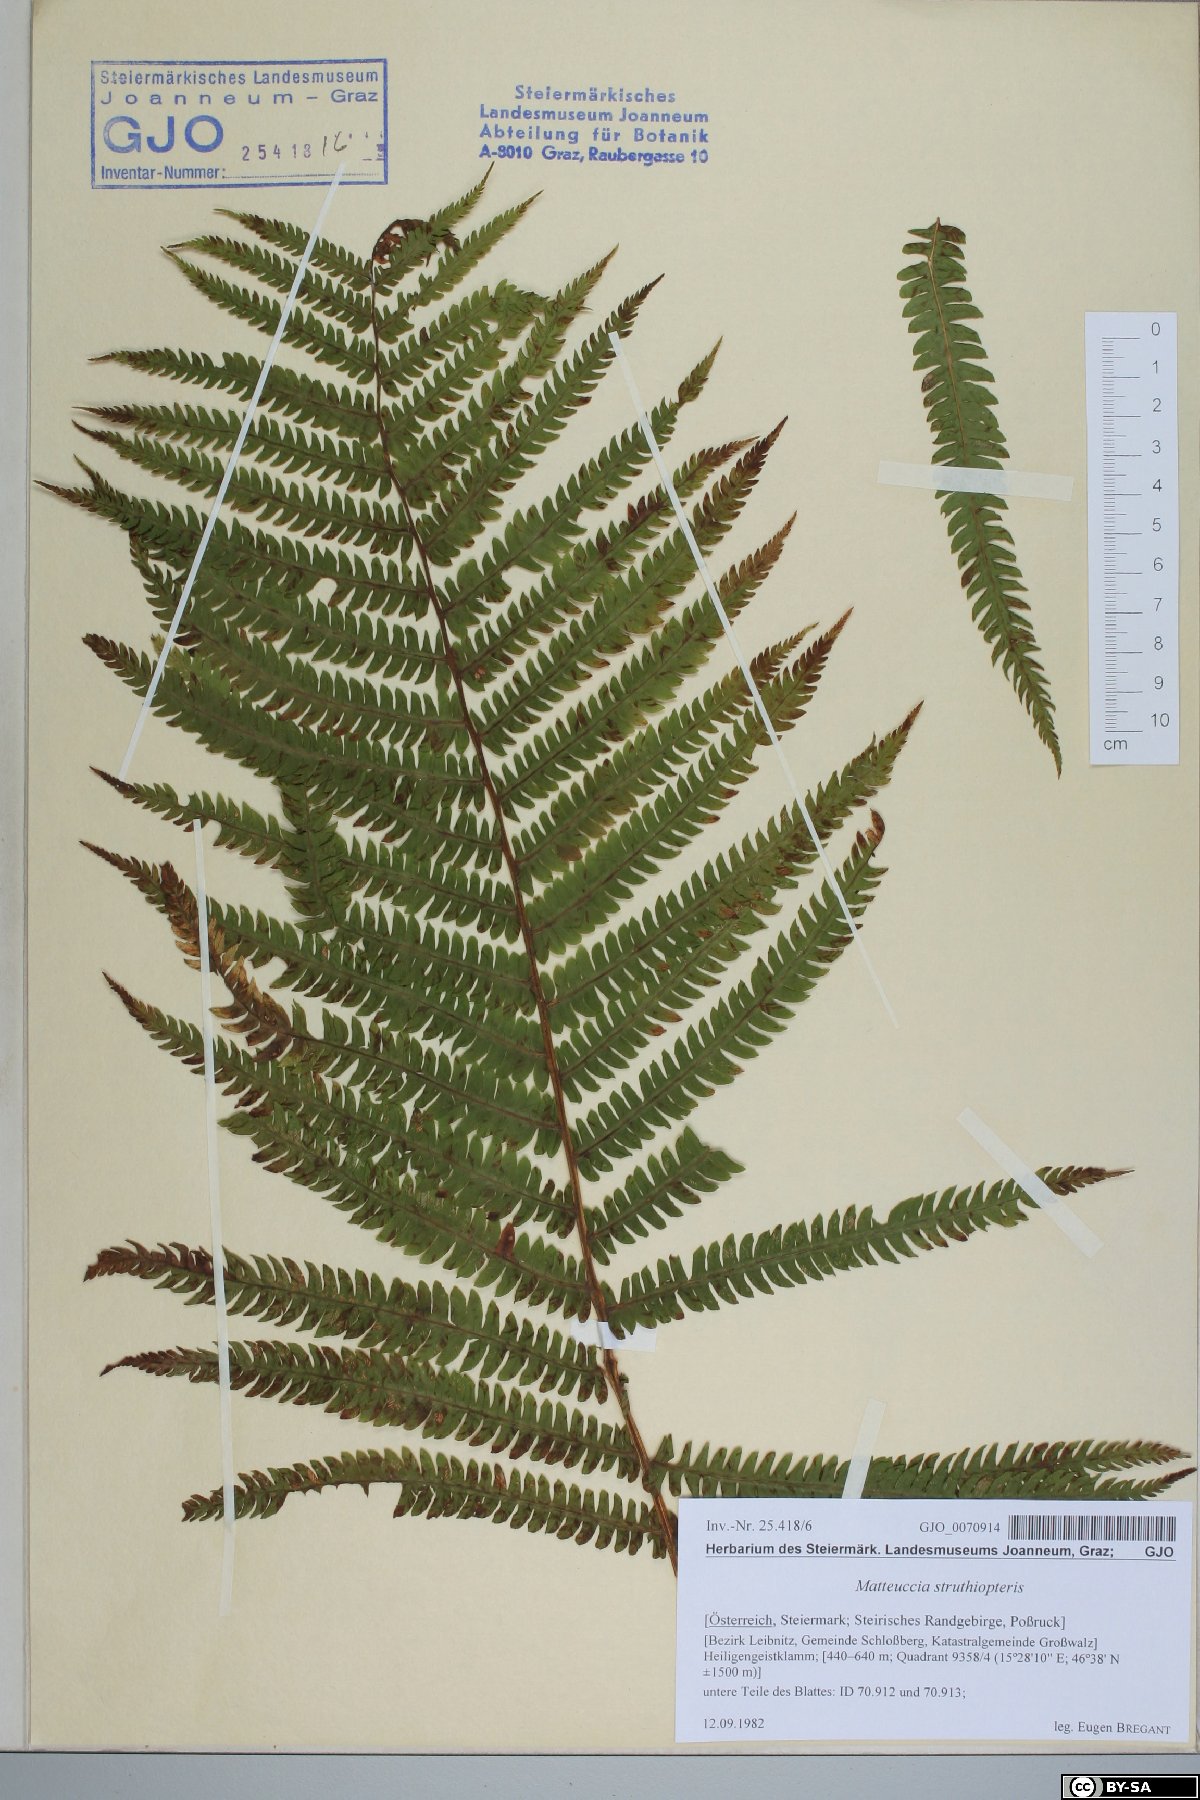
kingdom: Plantae
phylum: Tracheophyta
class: Polypodiopsida
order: Polypodiales
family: Onocleaceae
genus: Matteuccia
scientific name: Matteuccia struthiopteris
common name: Ostrich fern
